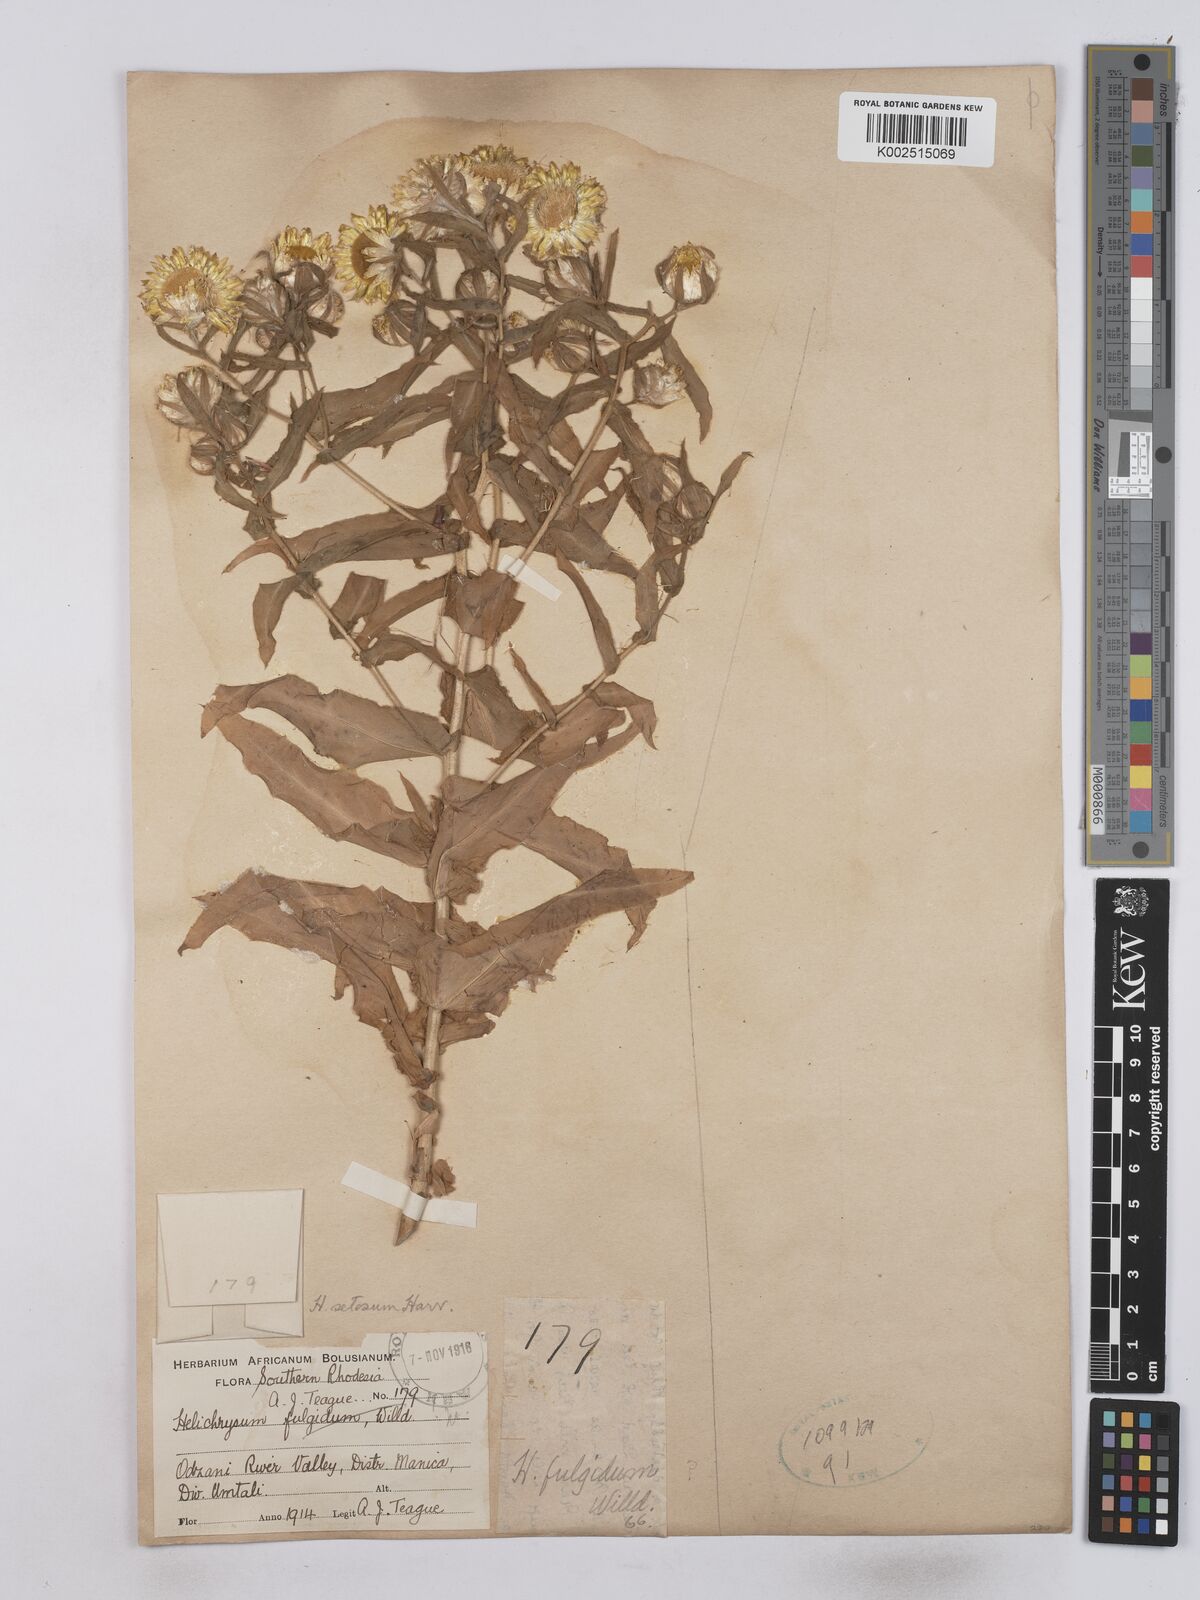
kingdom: Plantae
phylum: Tracheophyta
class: Magnoliopsida
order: Asterales
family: Asteraceae
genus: Helichrysum
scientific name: Helichrysum setosum
